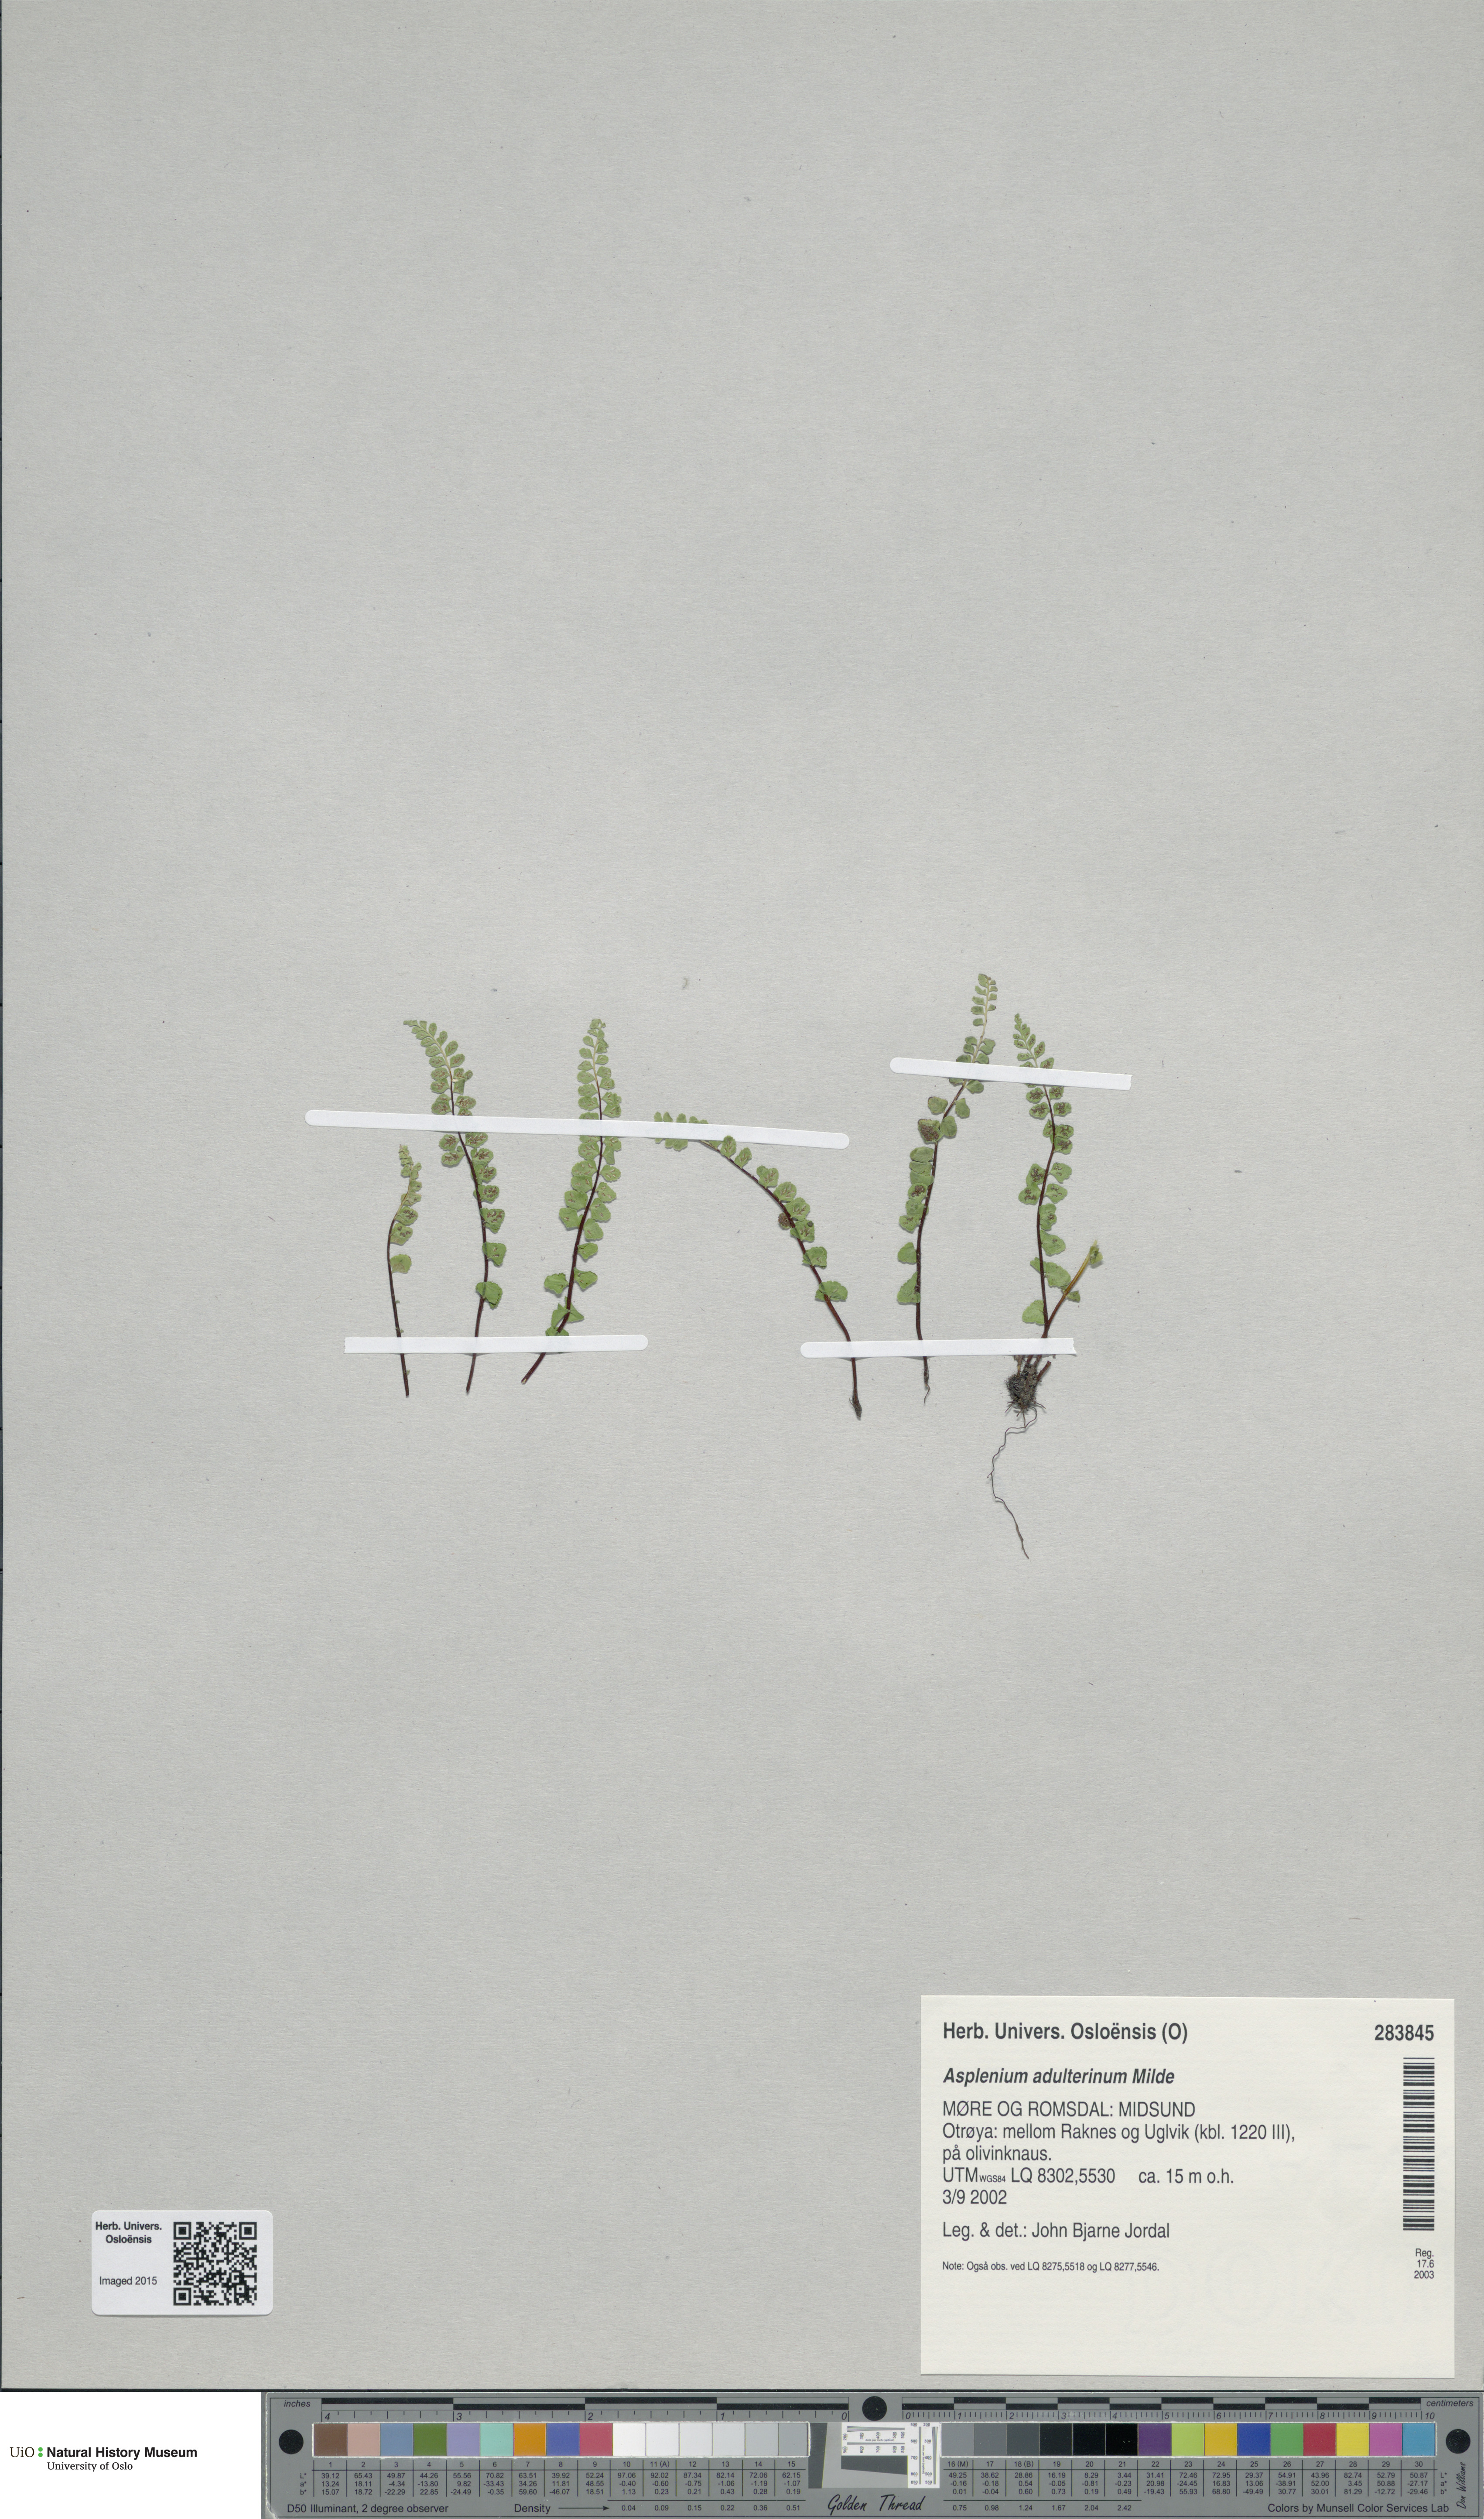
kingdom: Plantae
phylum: Tracheophyta
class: Polypodiopsida
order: Polypodiales
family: Aspleniaceae
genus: Asplenium
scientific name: Asplenium adulterinum
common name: Adulterated spleenwort
